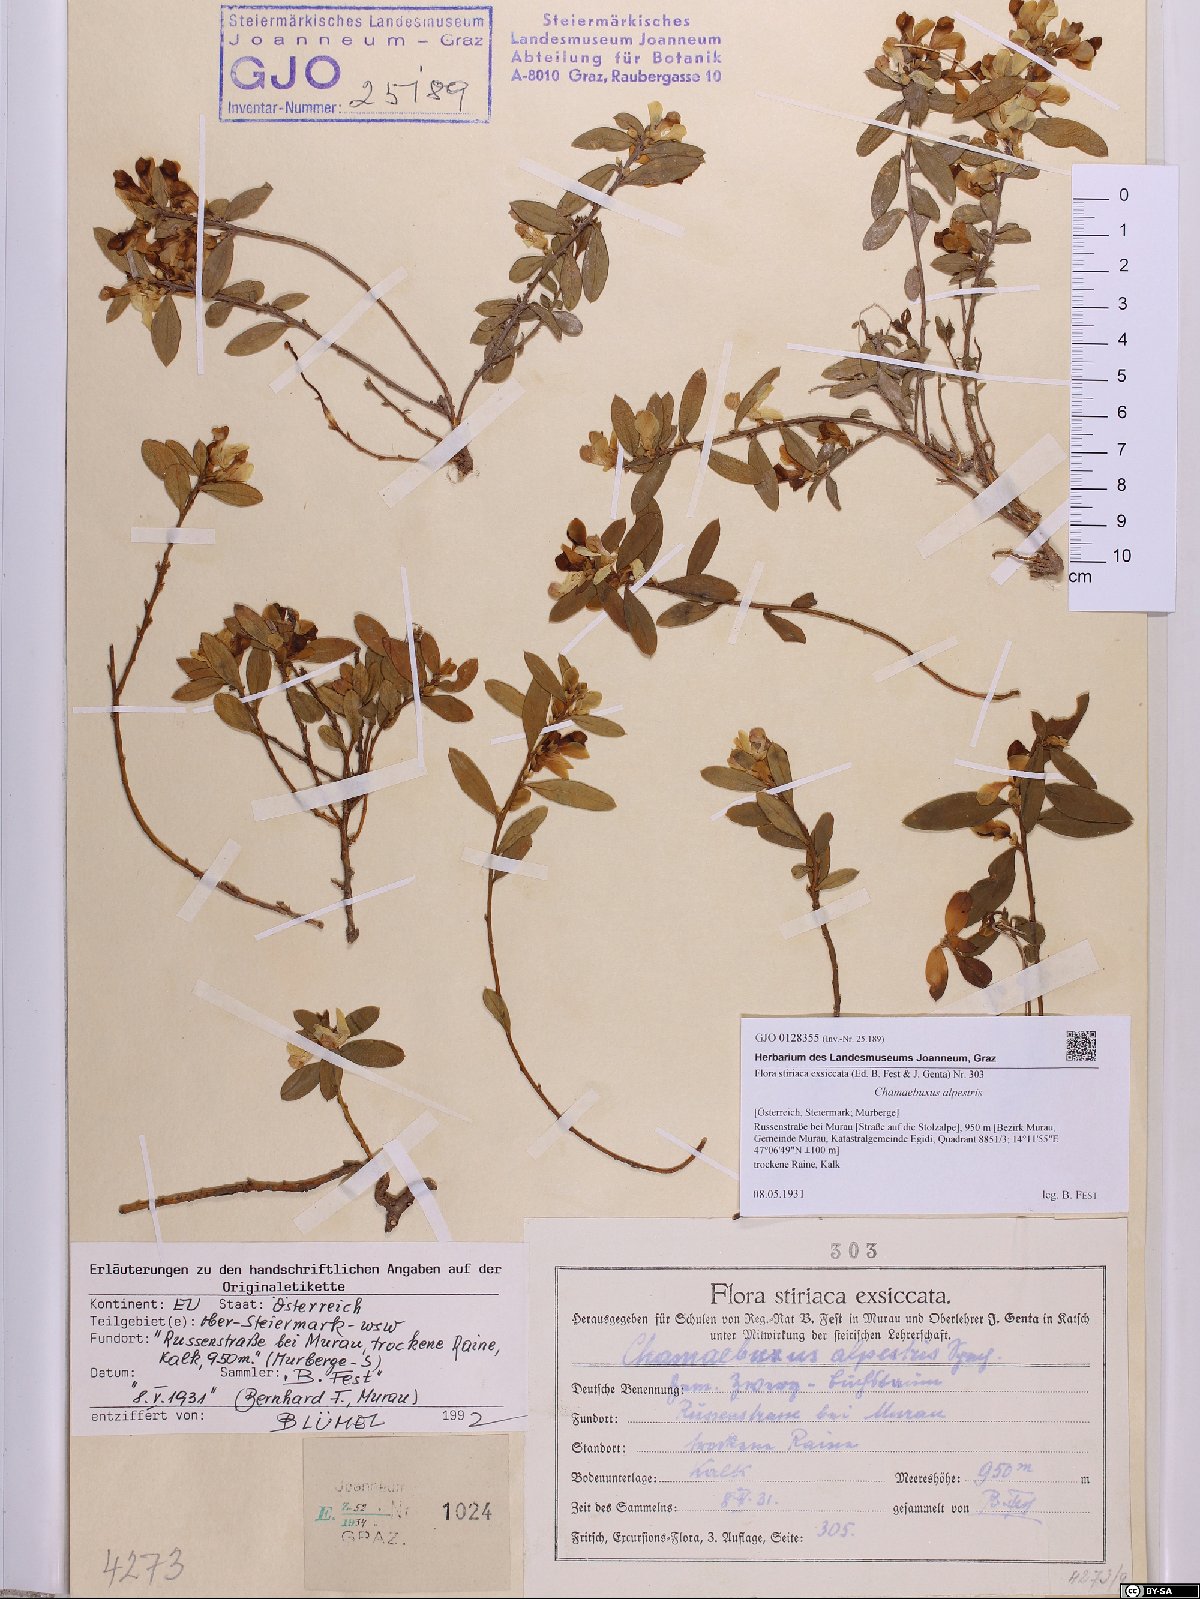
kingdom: Plantae
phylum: Tracheophyta
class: Magnoliopsida
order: Fabales
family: Polygalaceae
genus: Polygaloides
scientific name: Polygaloides chamaebuxus
